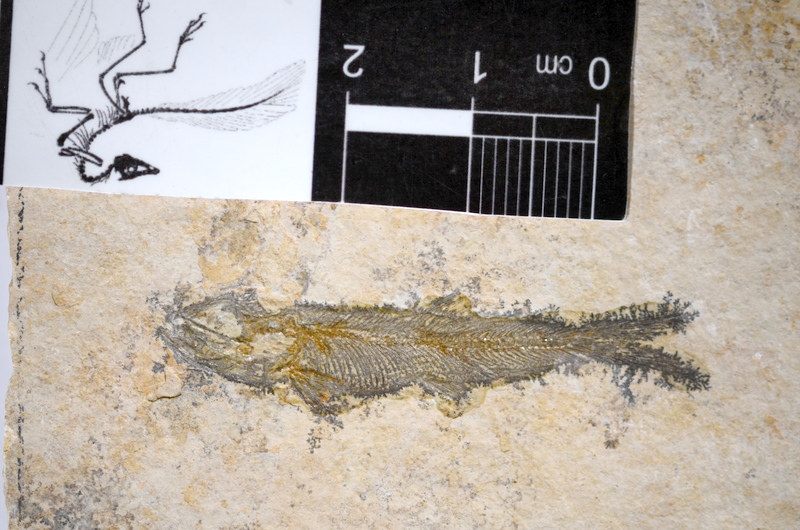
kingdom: Animalia
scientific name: Animalia
